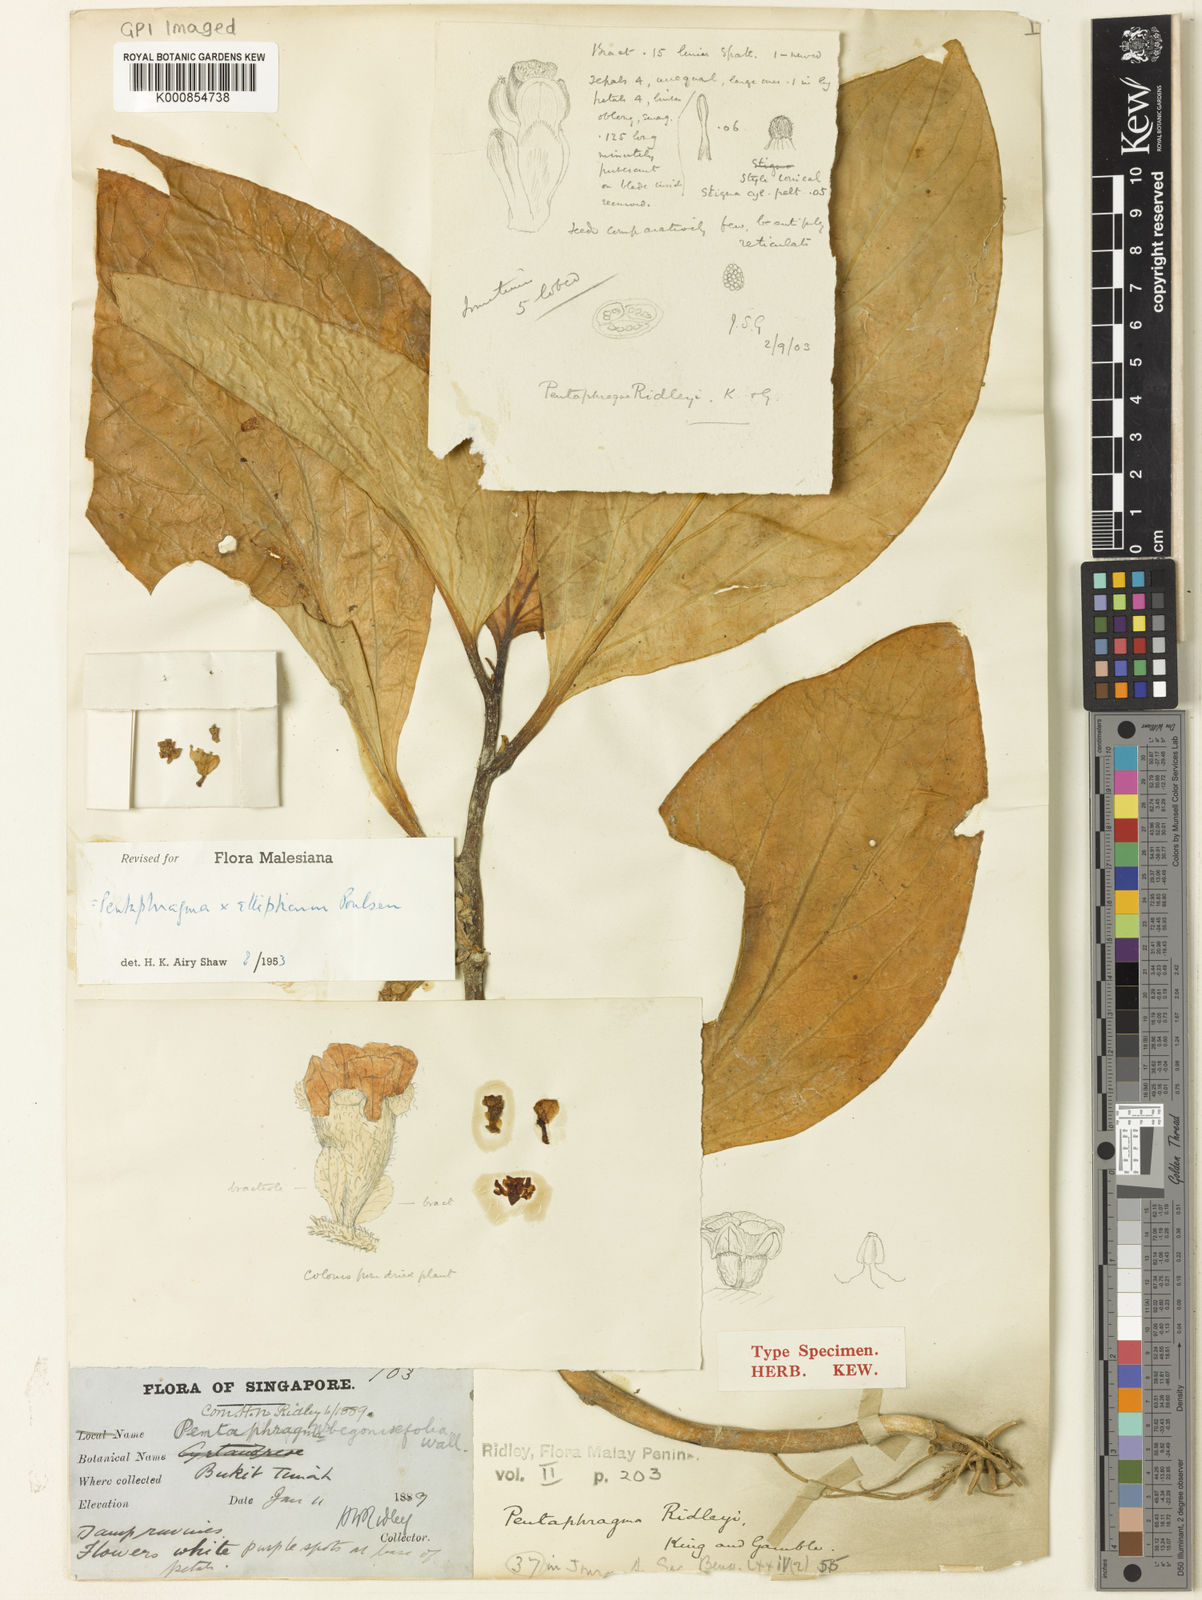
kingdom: Plantae
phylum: Tracheophyta
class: Magnoliopsida
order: Asterales
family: Pentaphragmataceae
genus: Pentaphragma
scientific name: Pentaphragma ellipticum
